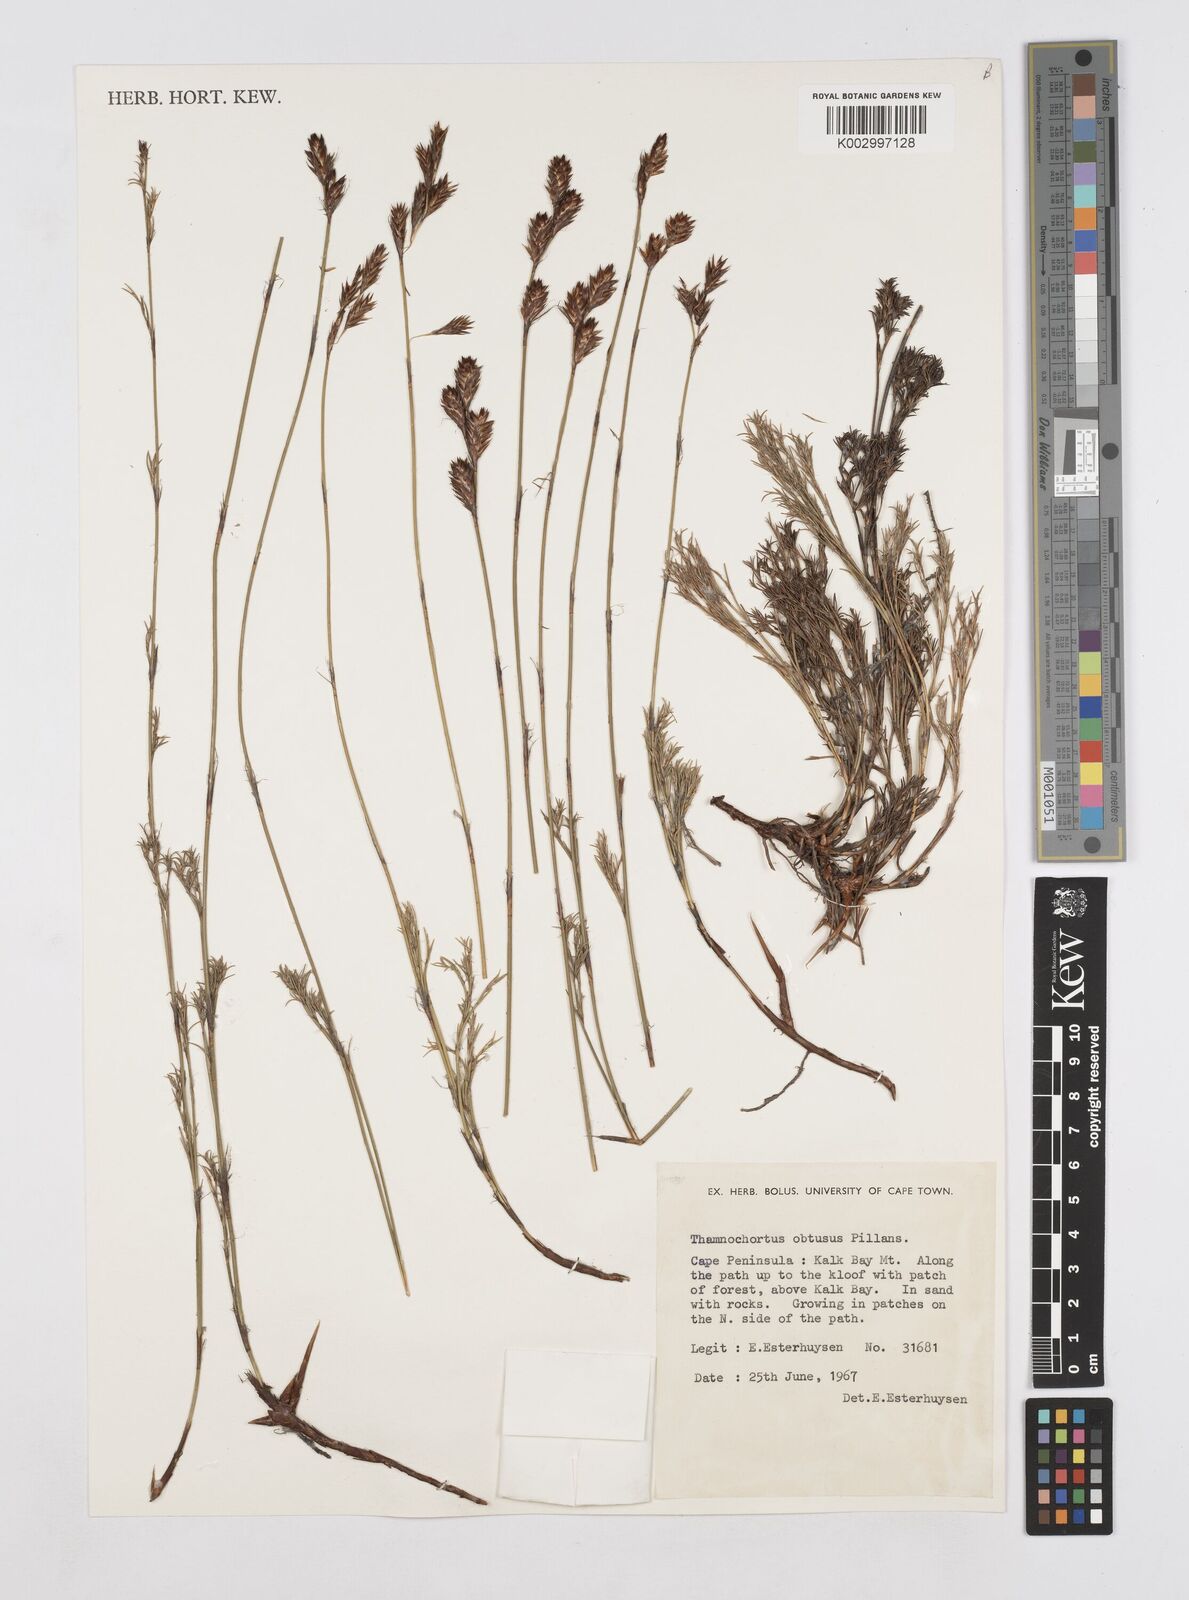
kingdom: Plantae
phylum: Tracheophyta
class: Liliopsida
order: Poales
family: Restionaceae
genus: Thamnochortus
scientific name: Thamnochortus obtusus
